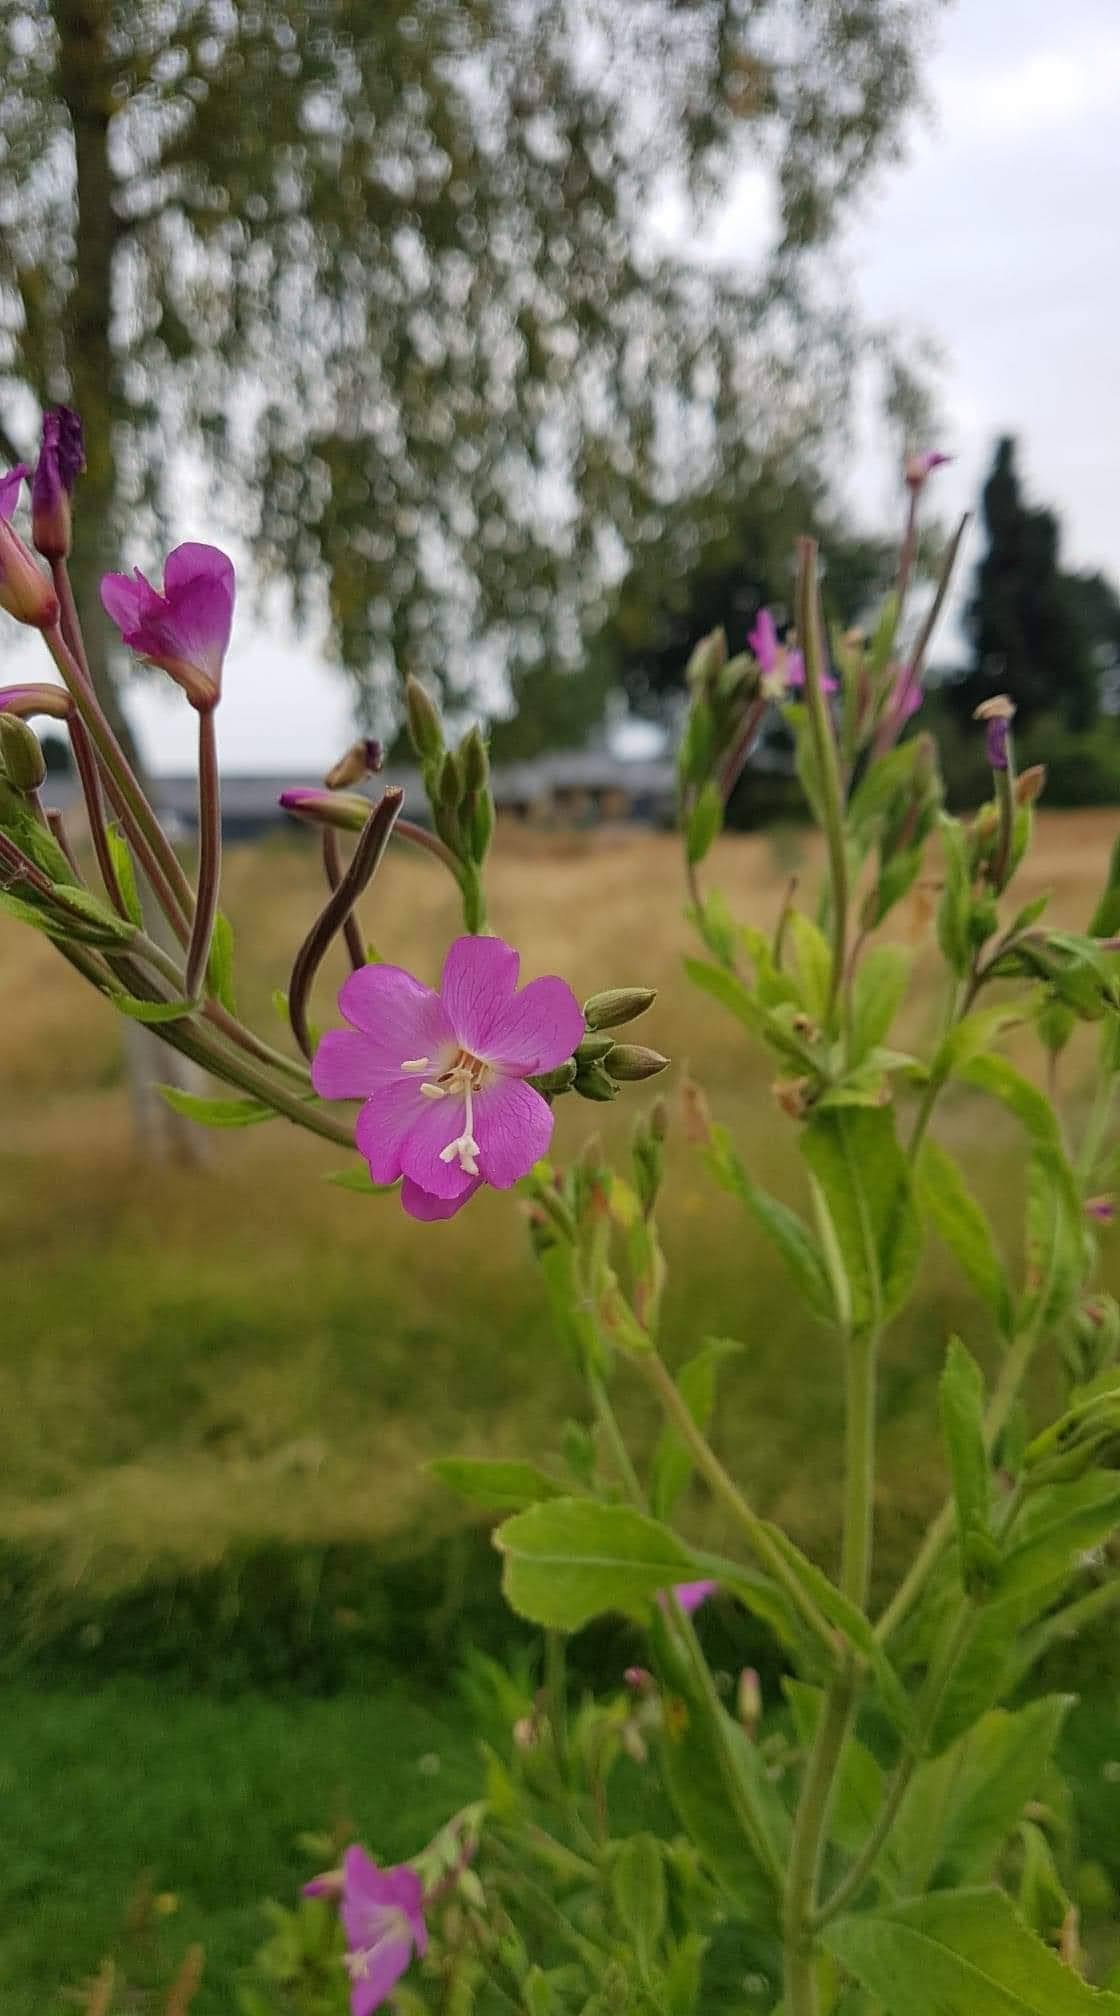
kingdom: Plantae
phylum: Tracheophyta
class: Magnoliopsida
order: Myrtales
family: Onagraceae
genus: Epilobium
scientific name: Epilobium hirsutum
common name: Lådden dueurt
